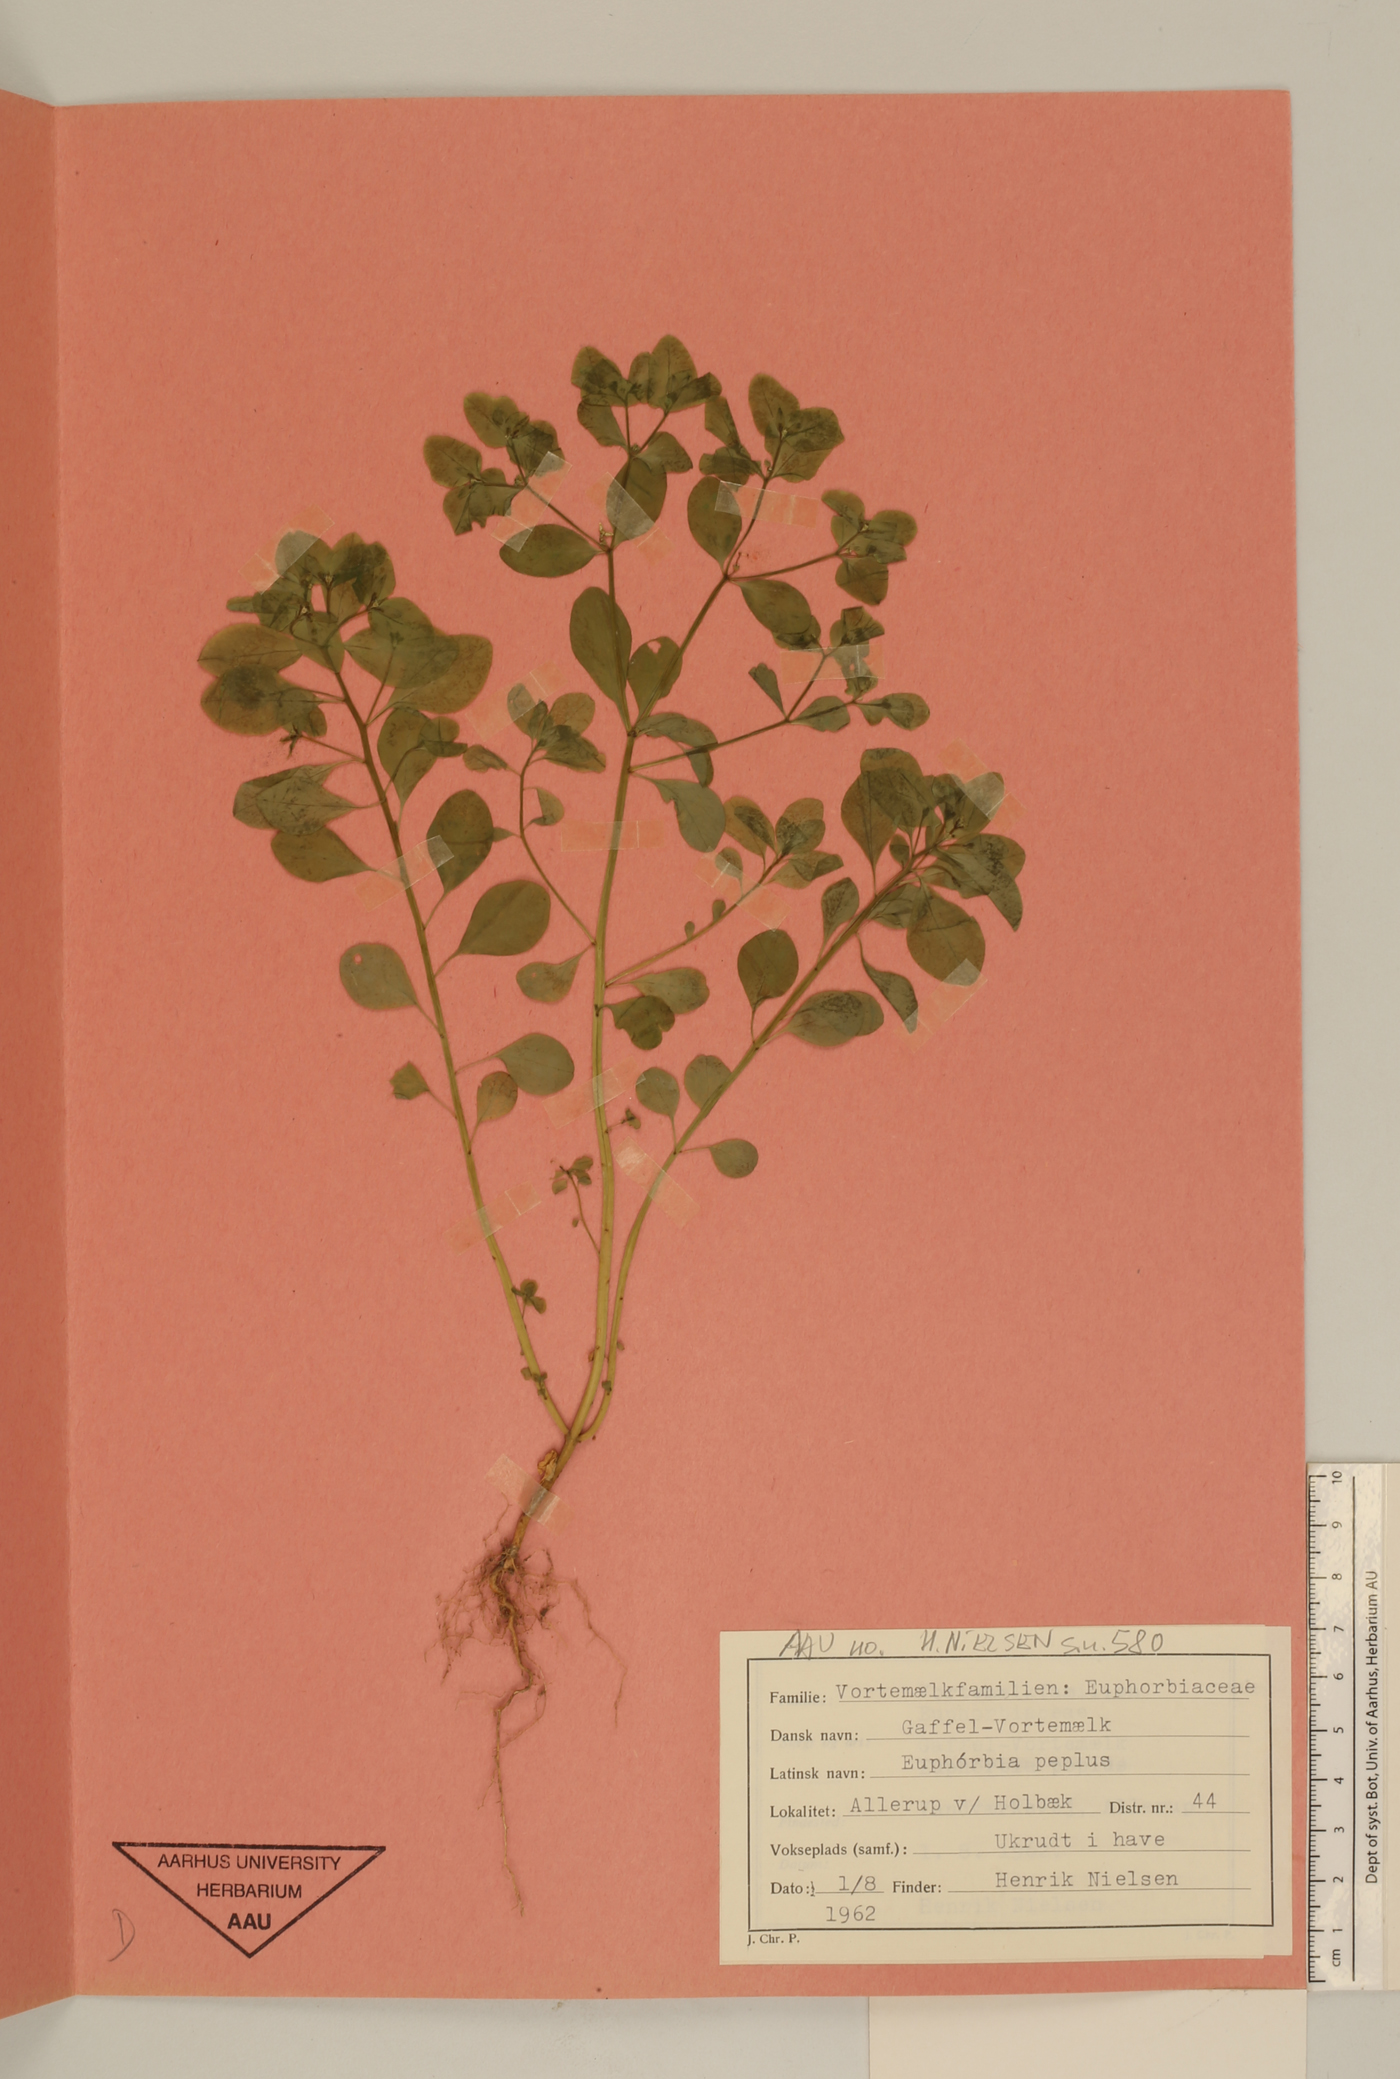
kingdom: Plantae
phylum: Tracheophyta
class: Magnoliopsida
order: Malpighiales
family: Euphorbiaceae
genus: Euphorbia
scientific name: Euphorbia peplus
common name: Petty spurge
